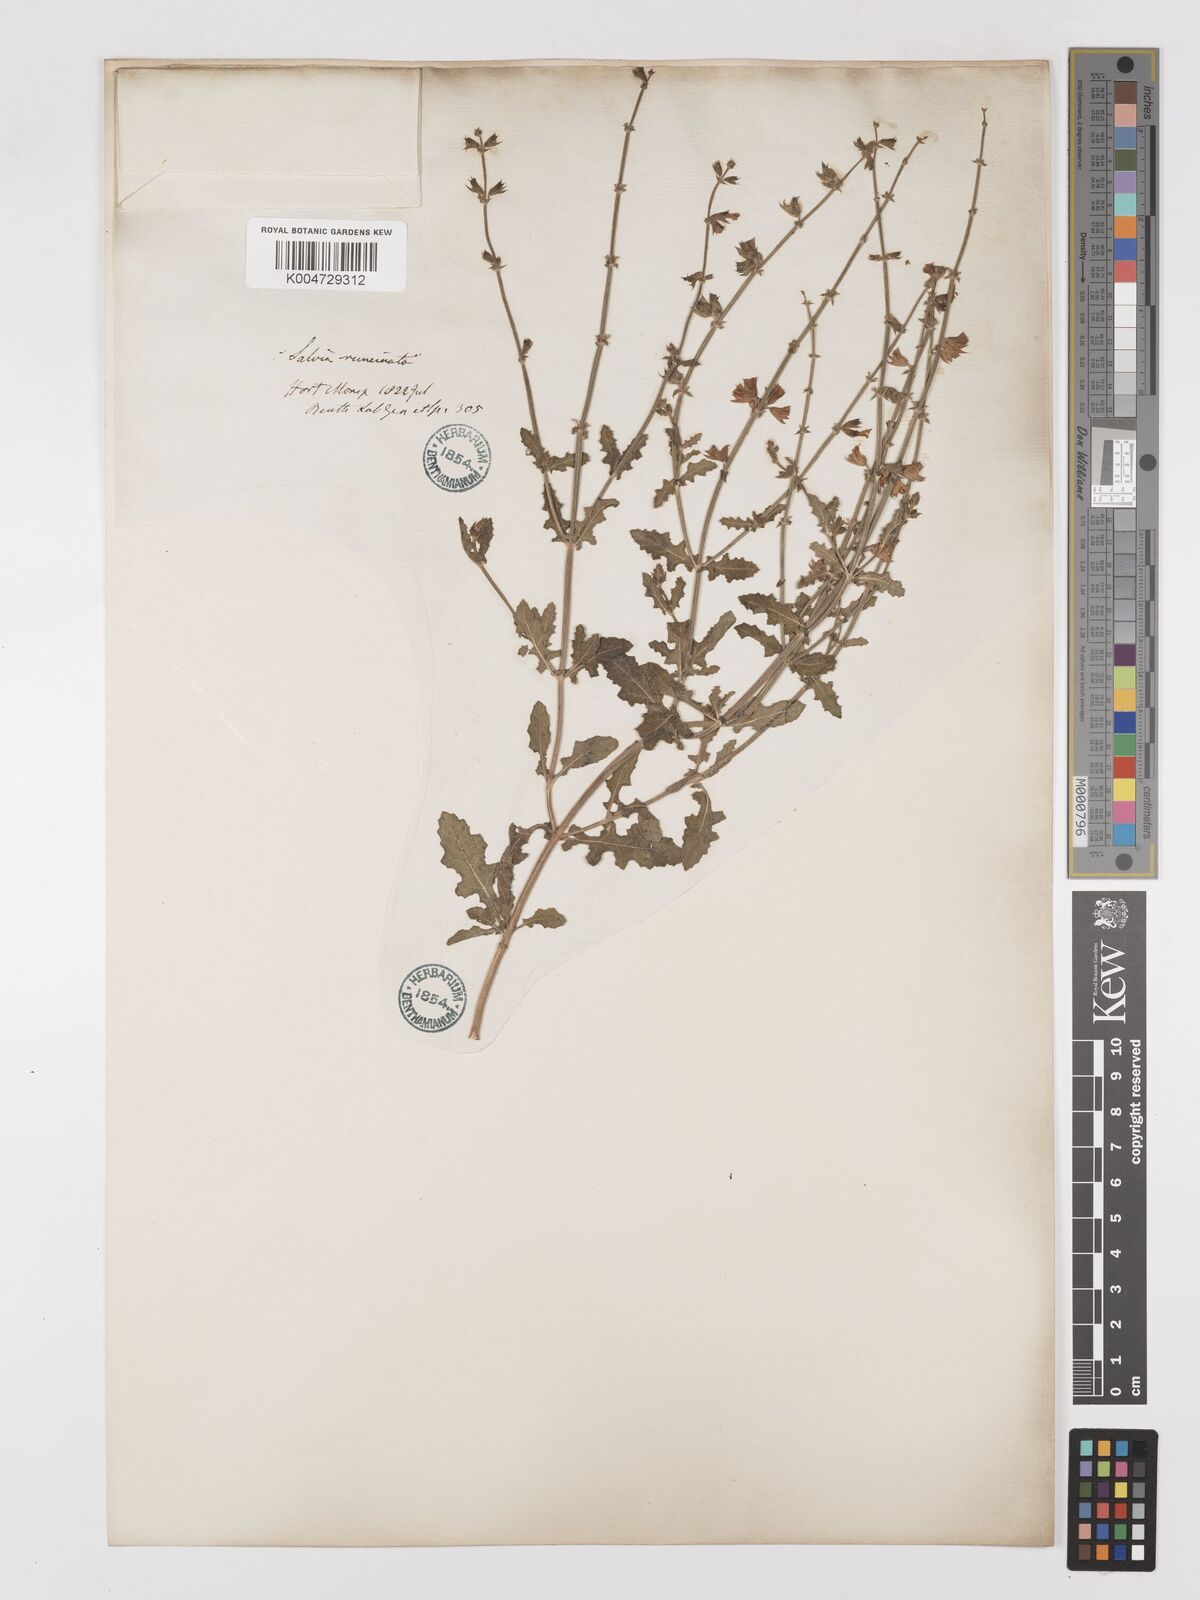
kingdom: Plantae
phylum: Tracheophyta
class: Magnoliopsida
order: Lamiales
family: Lamiaceae
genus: Salvia
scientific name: Salvia runcinata
